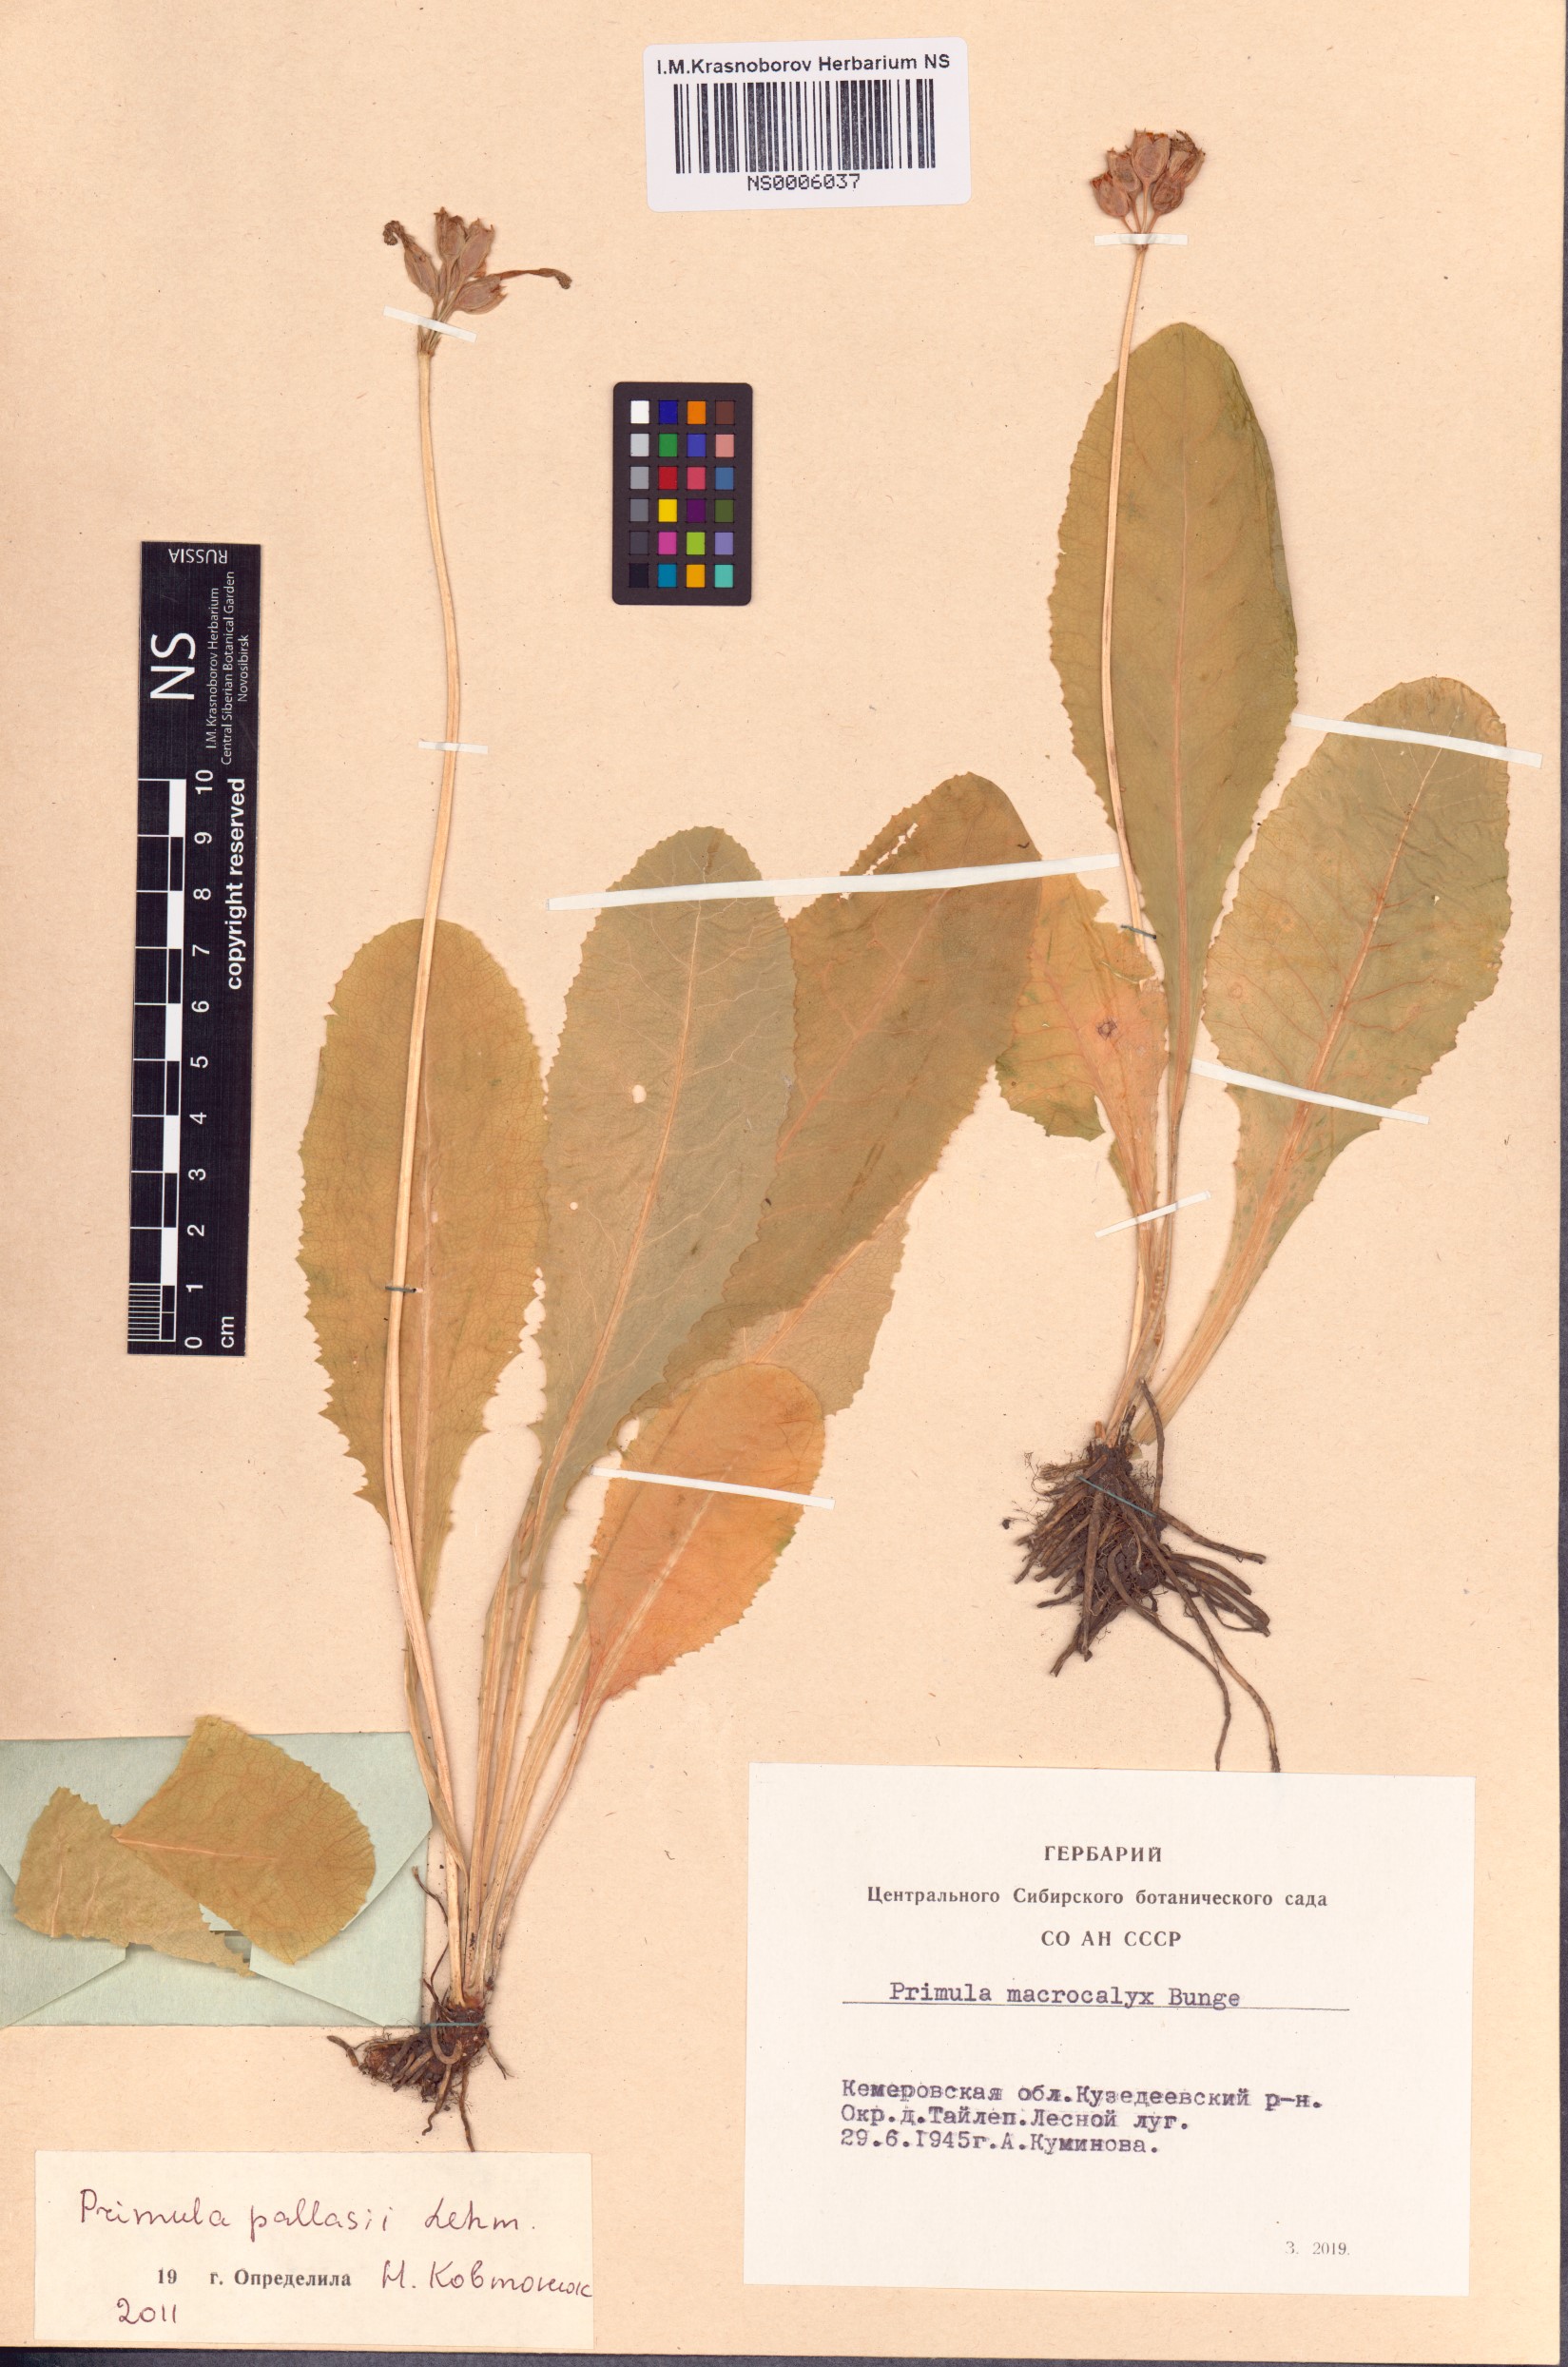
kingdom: Plantae
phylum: Tracheophyta
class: Magnoliopsida
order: Ericales
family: Primulaceae
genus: Primula
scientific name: Primula elatior
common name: Oxlip
